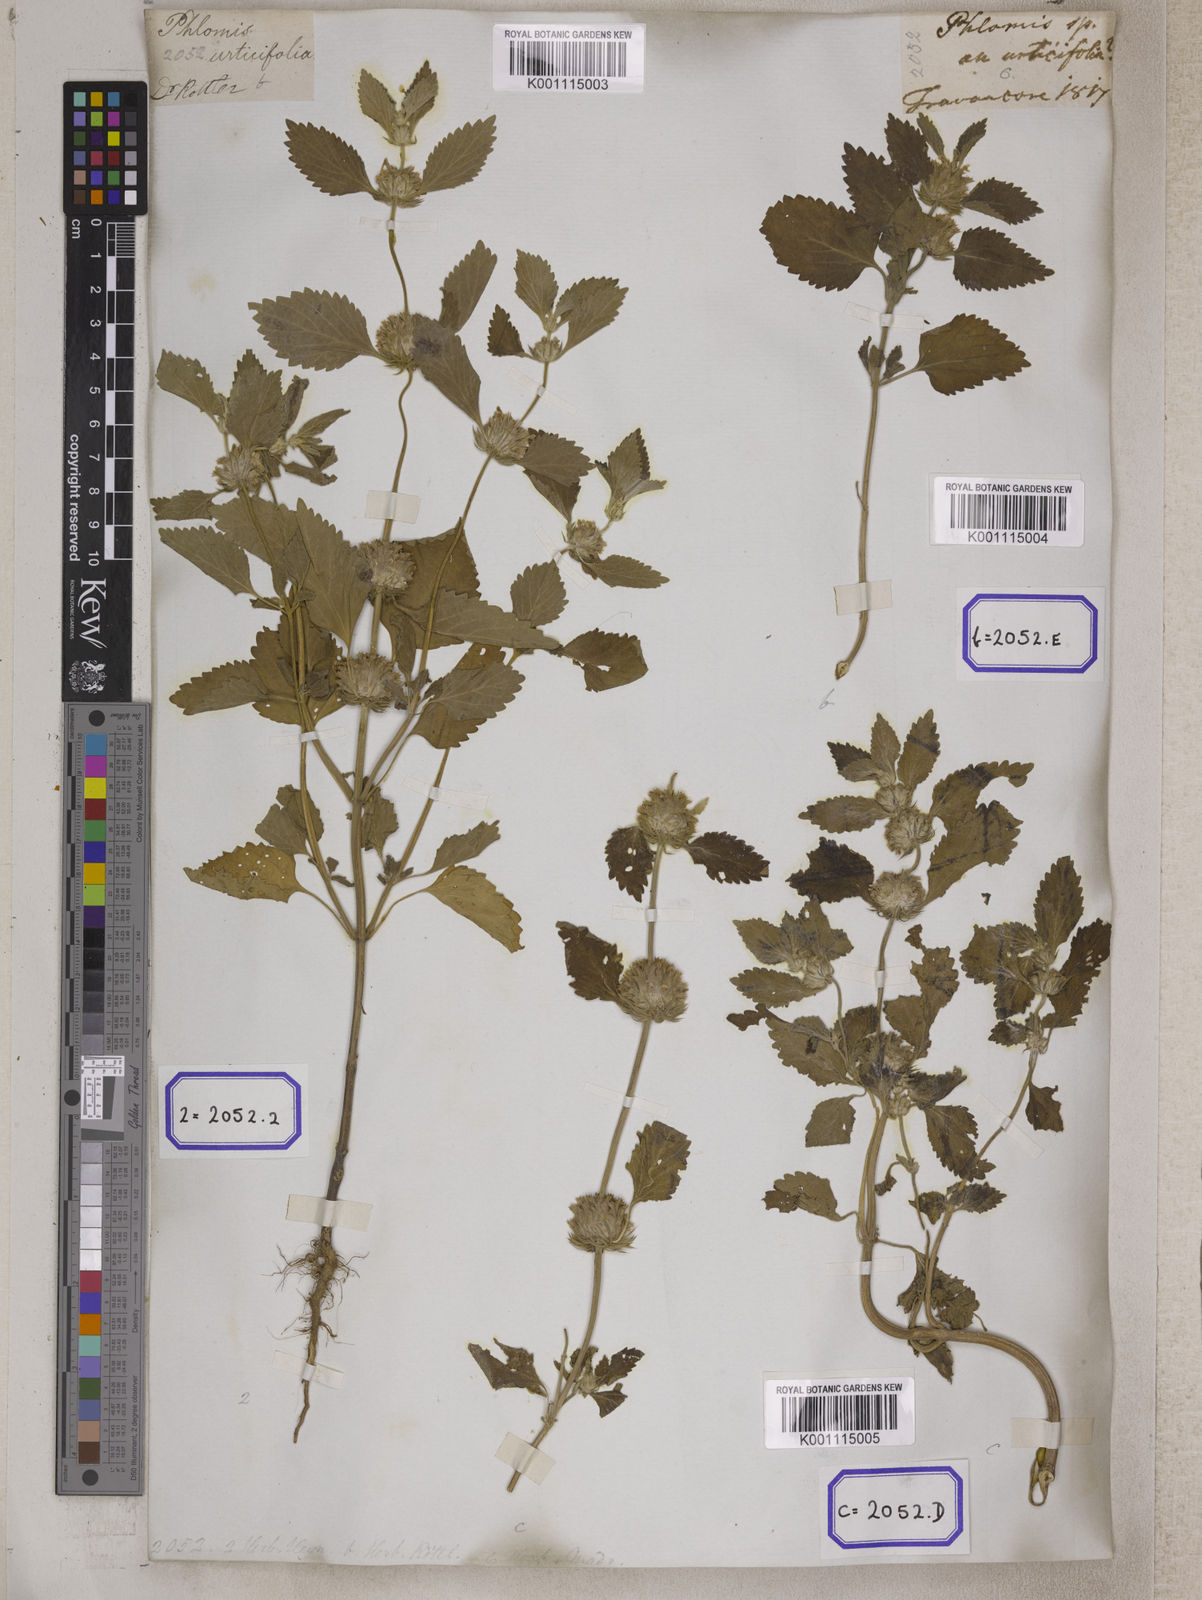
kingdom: Plantae
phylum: Tracheophyta
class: Magnoliopsida
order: Lamiales
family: Lamiaceae
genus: Leucas
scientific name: Leucas
